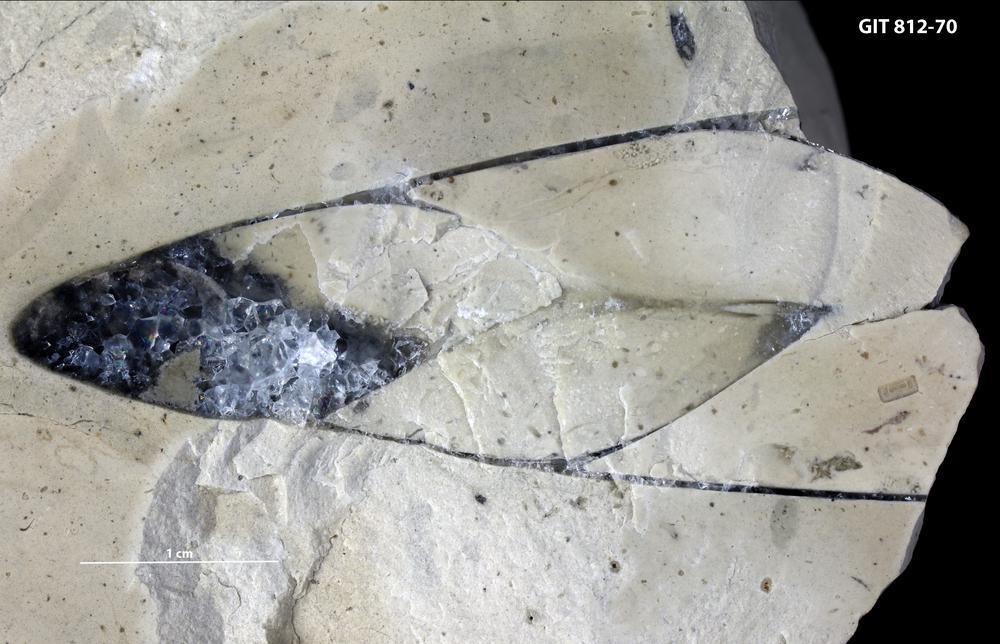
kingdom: Animalia
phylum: Mollusca
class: Gastropoda
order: Pleurotomariida
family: Murchisoniidae
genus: Murchisonia
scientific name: Murchisonia
